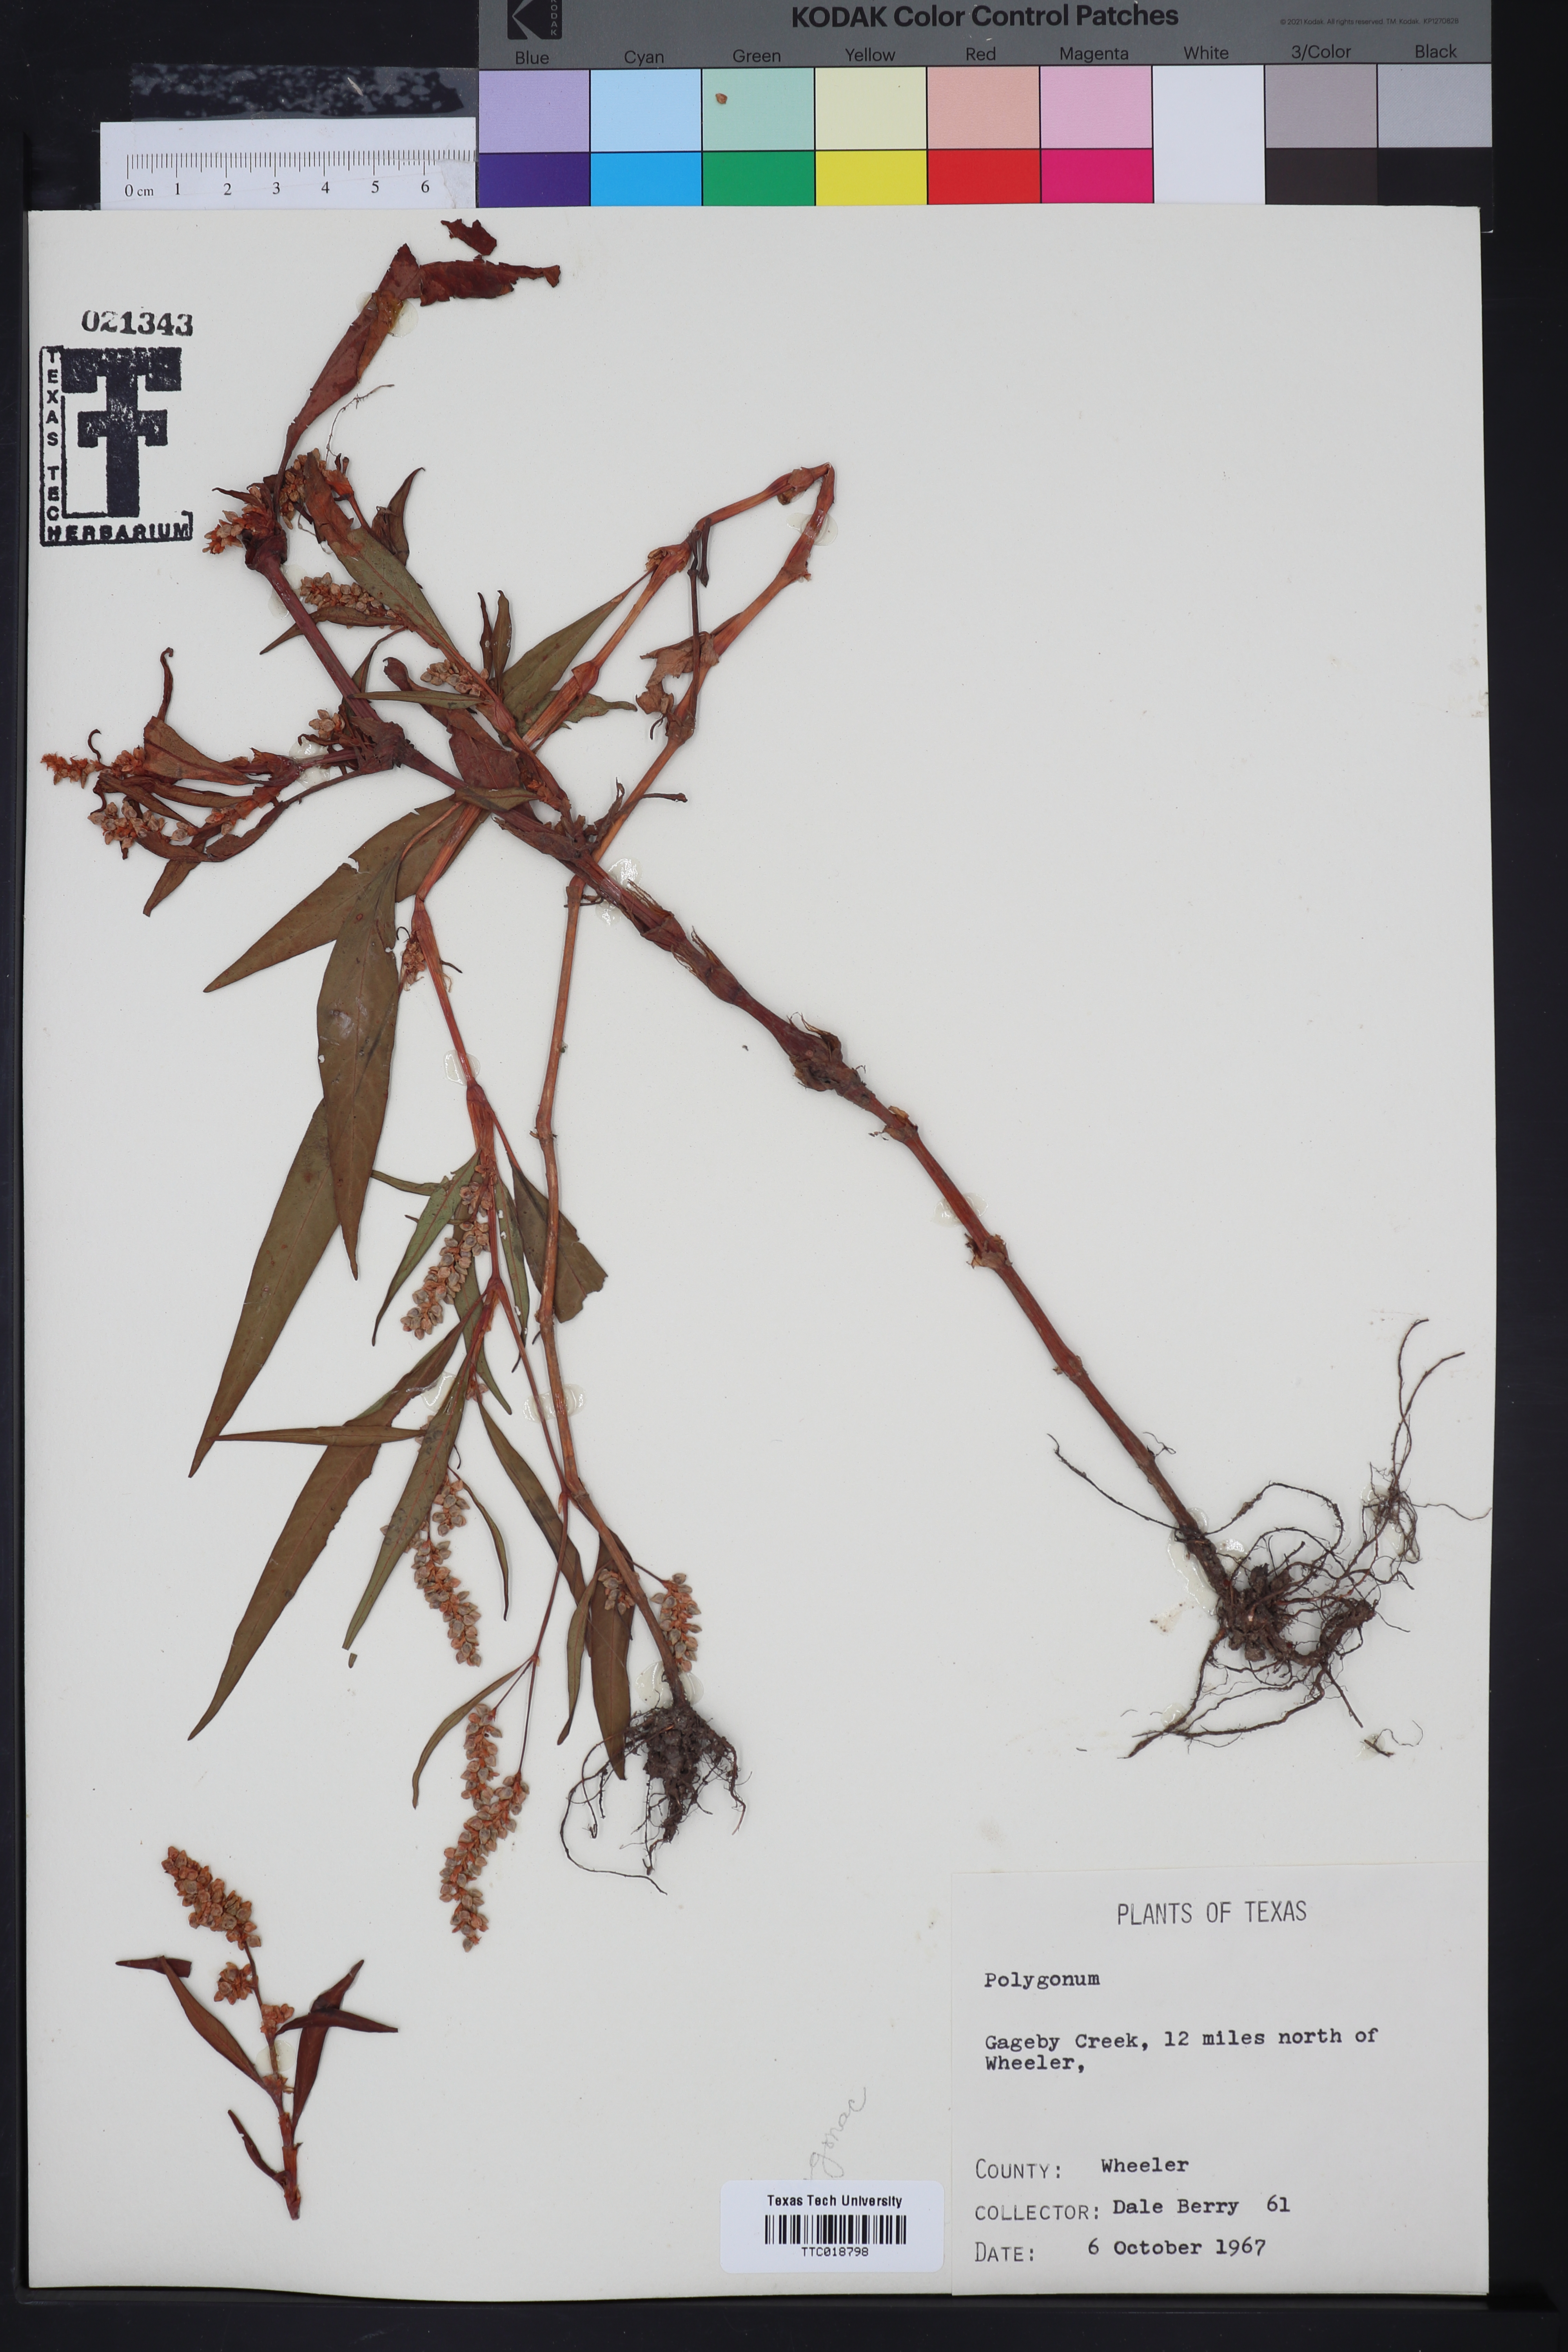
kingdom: Plantae
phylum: Tracheophyta
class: Magnoliopsida
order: Caryophyllales
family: Polygonaceae
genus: Polygonum
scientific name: Polygonum
